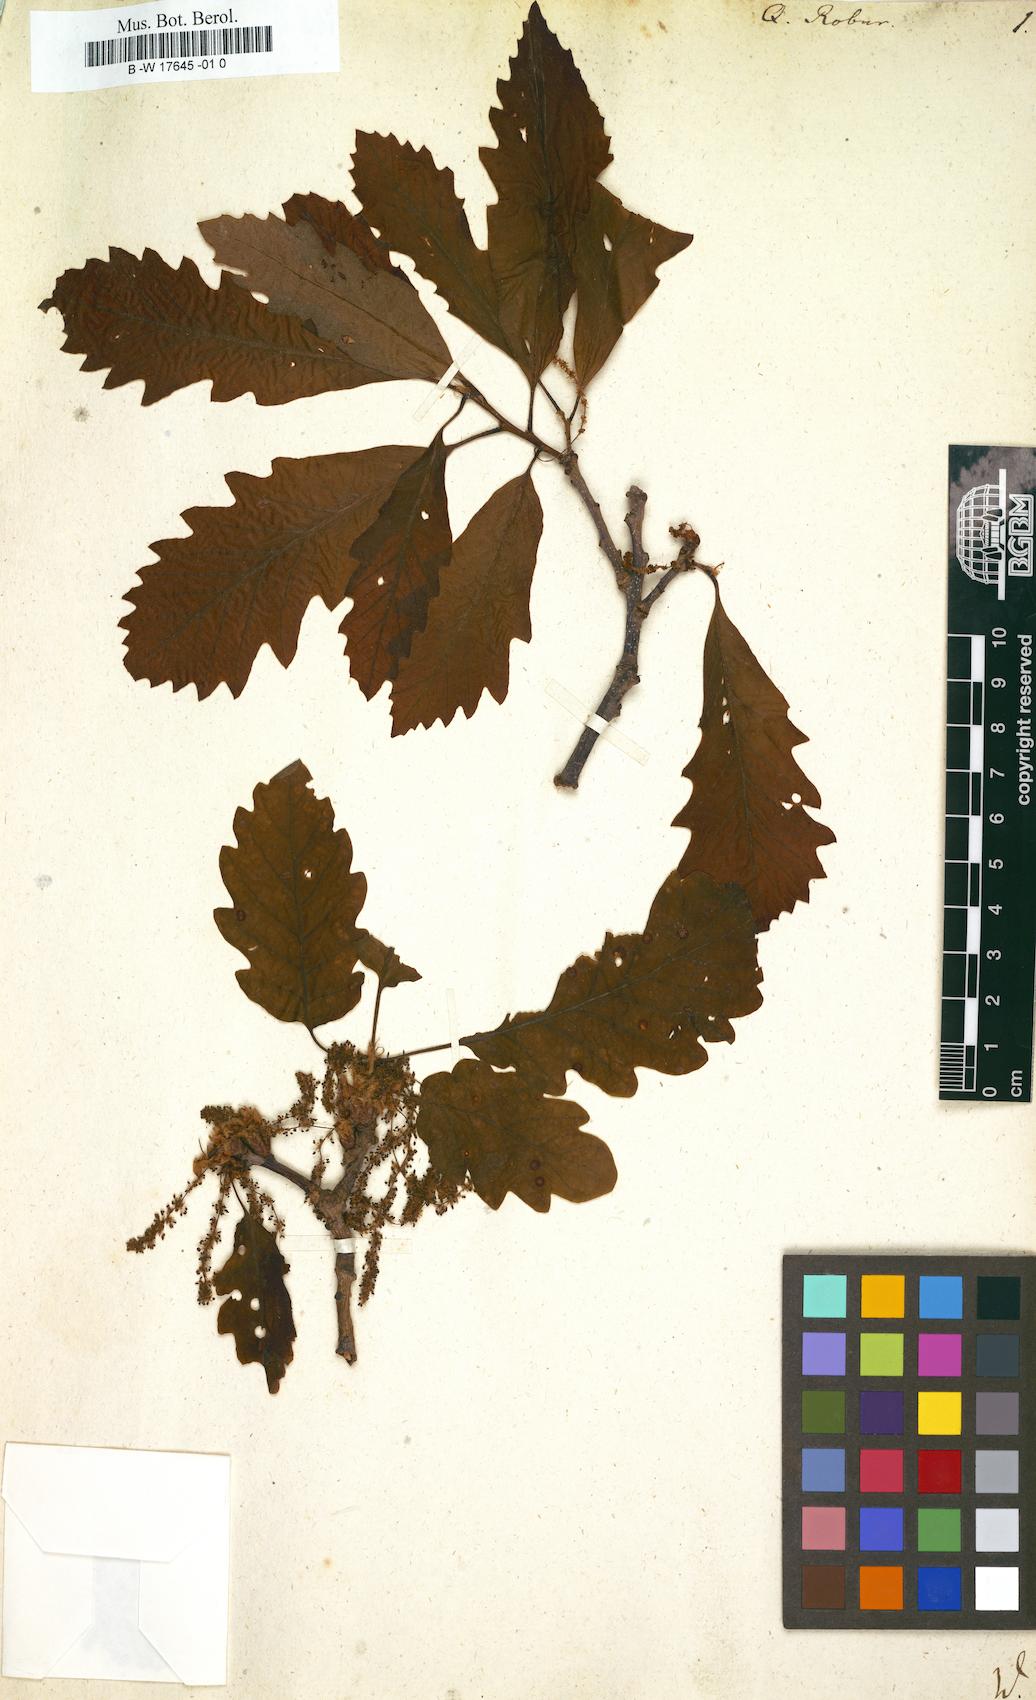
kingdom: Plantae
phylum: Tracheophyta
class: Magnoliopsida
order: Fagales
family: Fagaceae
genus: Quercus
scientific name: Quercus robur
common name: Pedunculate oak
